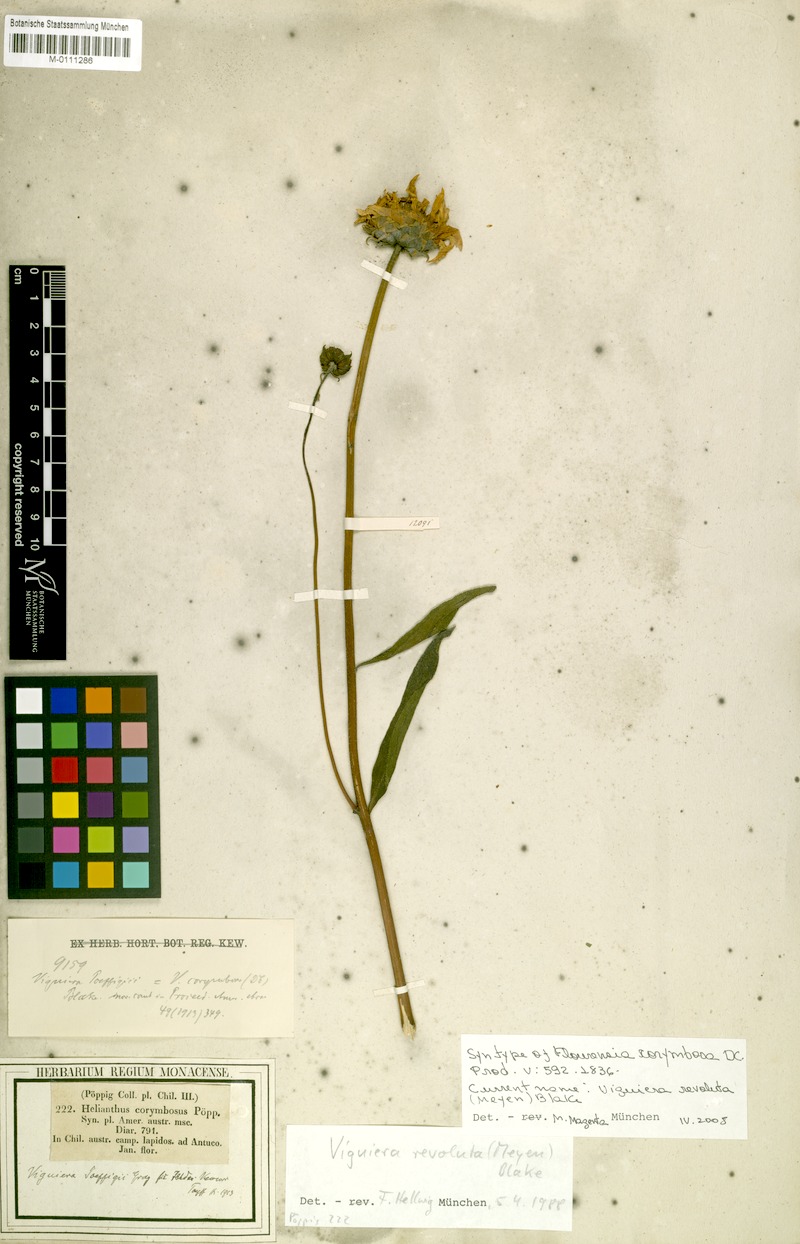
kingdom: Plantae
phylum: Tracheophyta
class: Magnoliopsida
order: Asterales
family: Asteraceae
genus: Aldama
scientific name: Aldama revoluta
